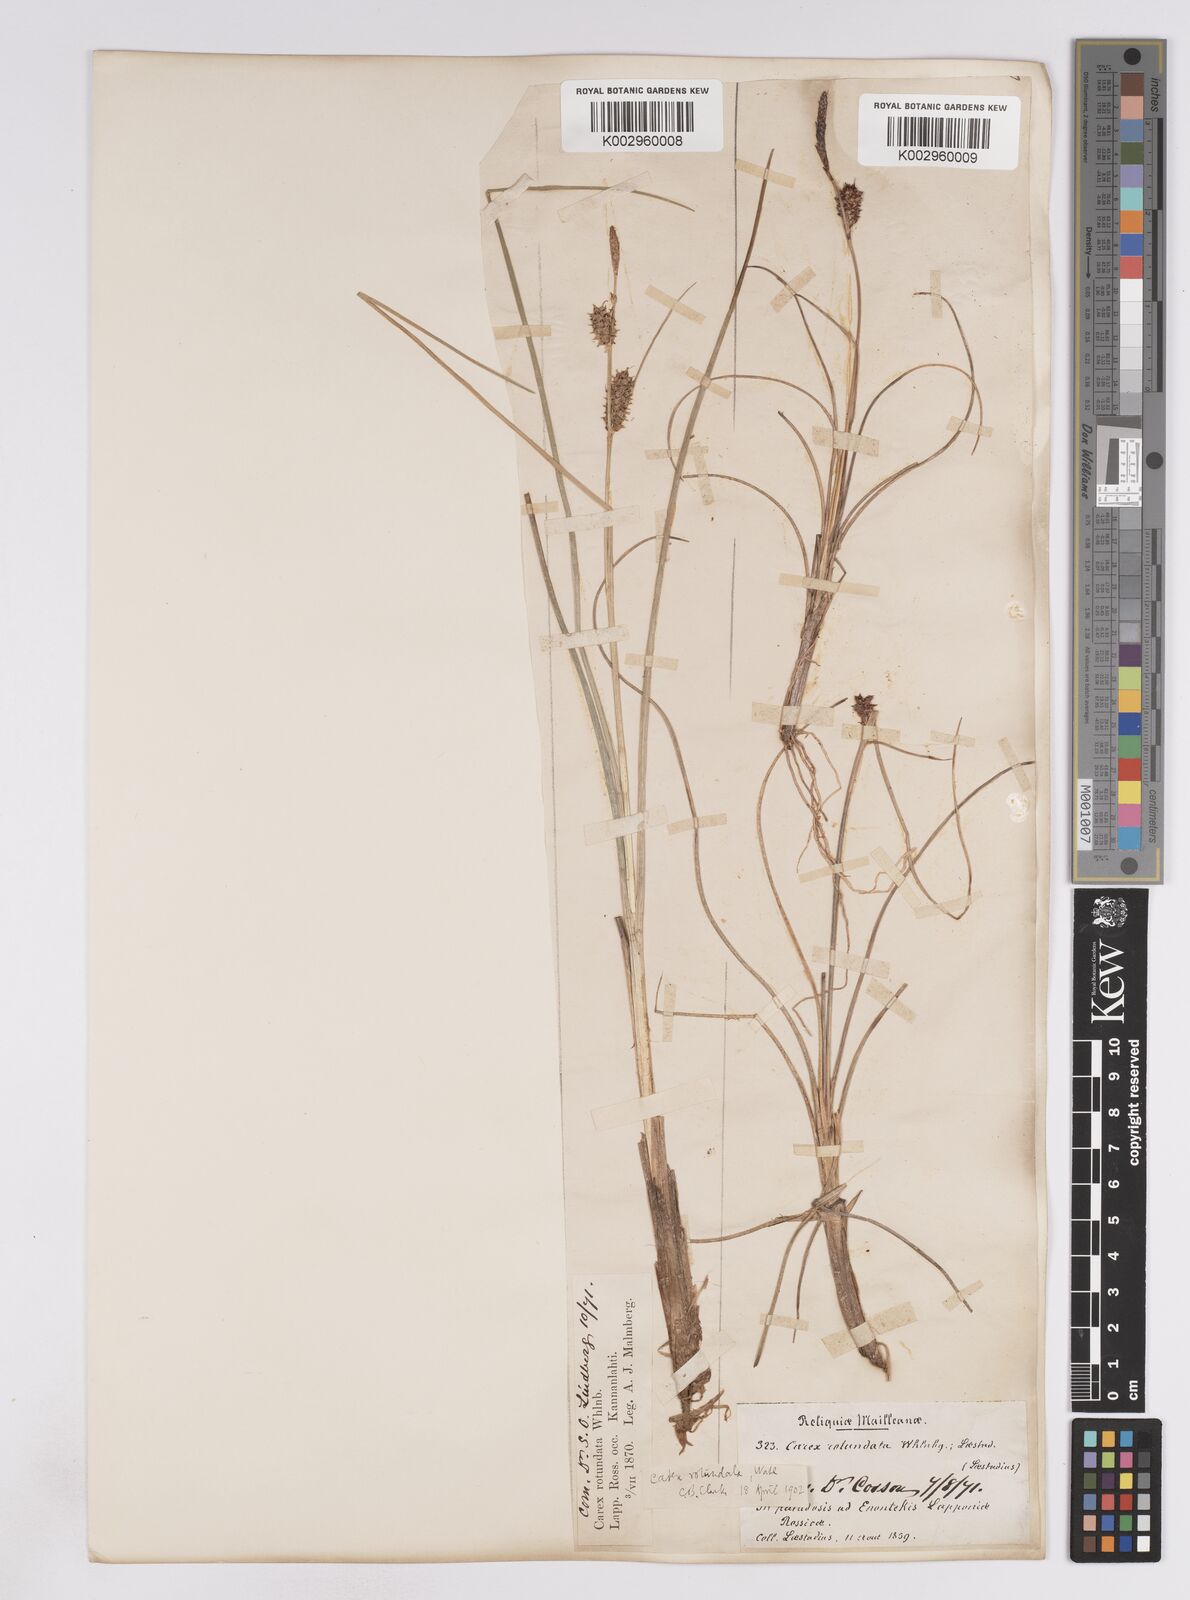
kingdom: Plantae
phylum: Tracheophyta
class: Liliopsida
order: Poales
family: Cyperaceae
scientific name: Cyperaceae
